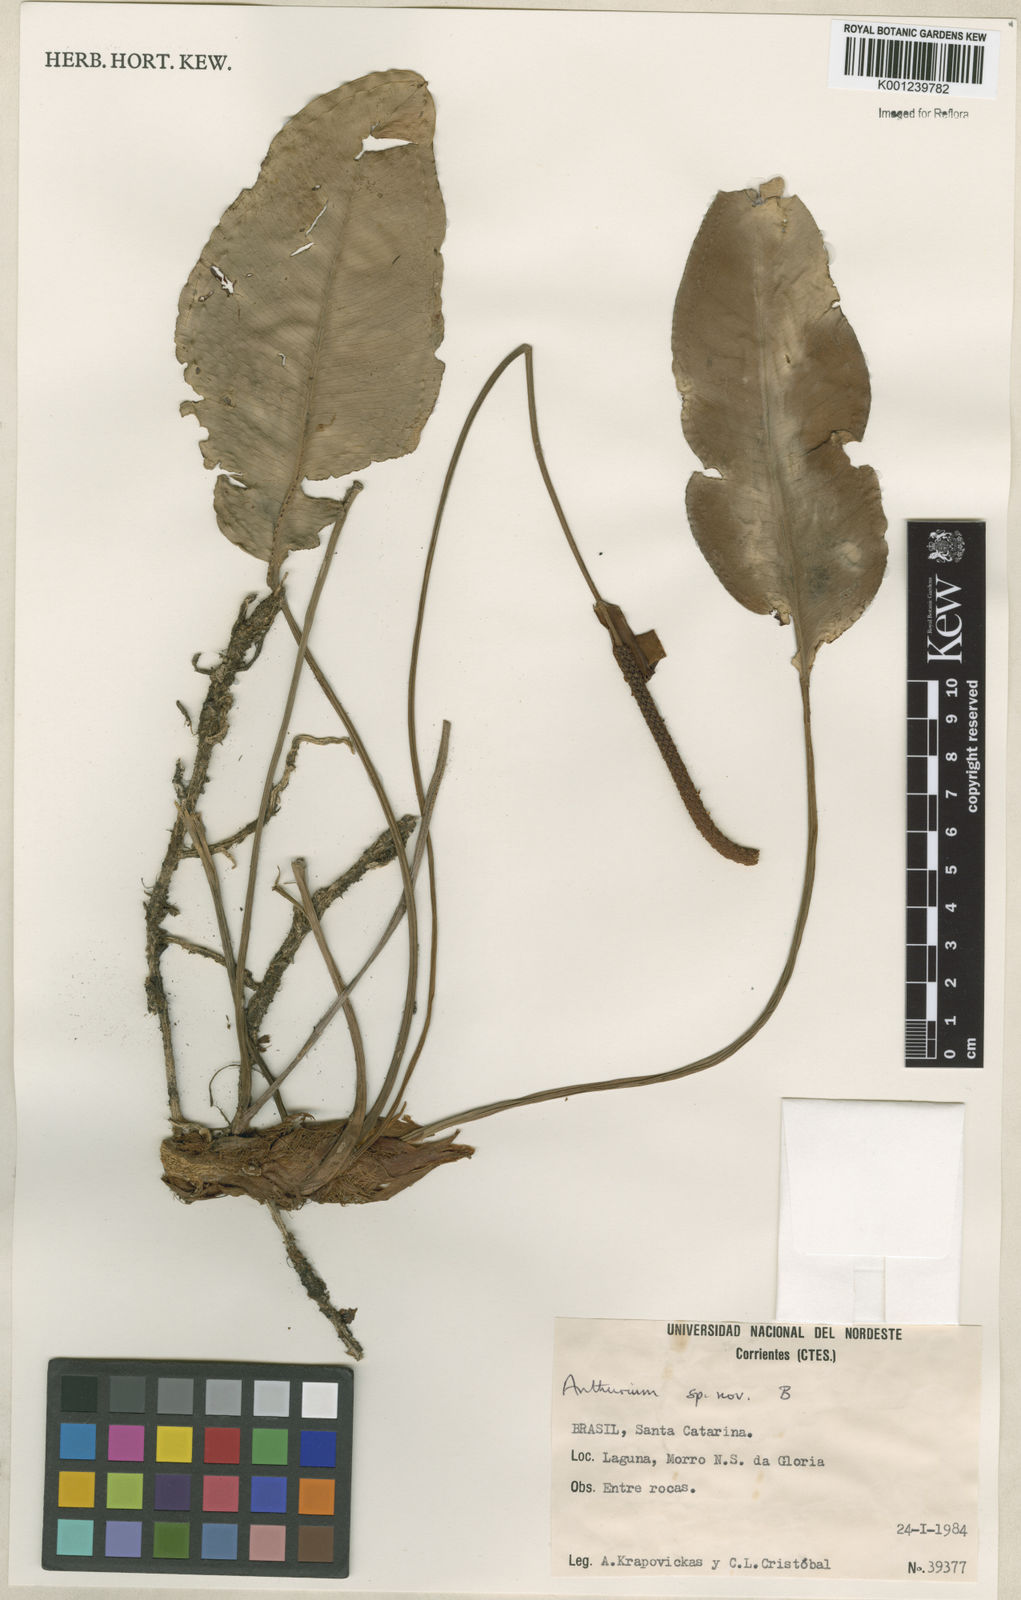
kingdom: Plantae
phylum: Tracheophyta
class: Liliopsida
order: Alismatales
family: Araceae
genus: Anthurium
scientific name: Anthurium
